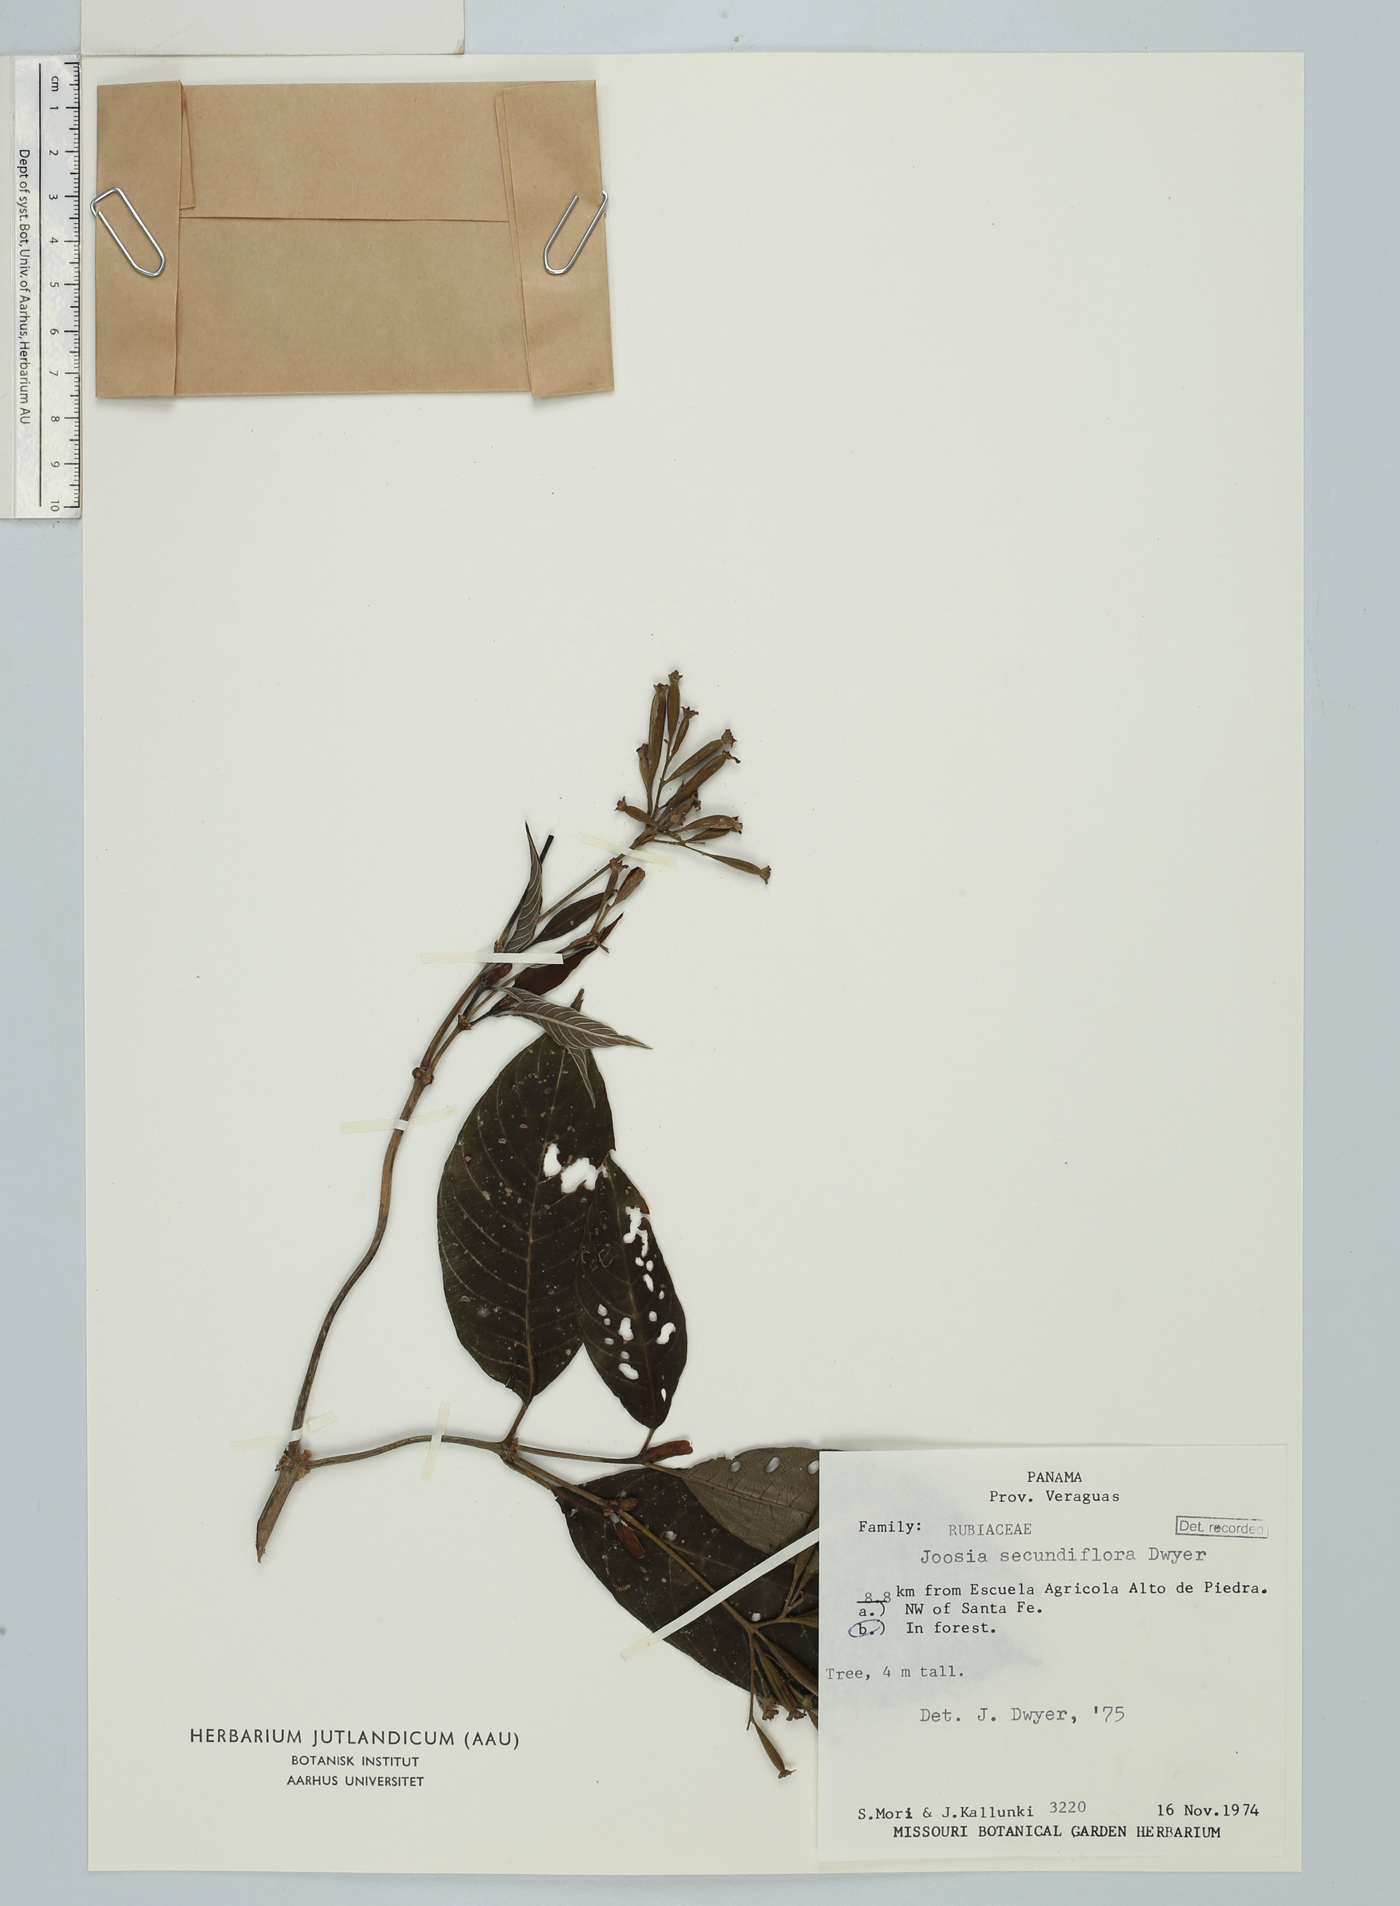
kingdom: Plantae
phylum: Tracheophyta
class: Magnoliopsida
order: Gentianales
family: Rubiaceae
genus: Joosia
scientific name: Joosia panamensis
